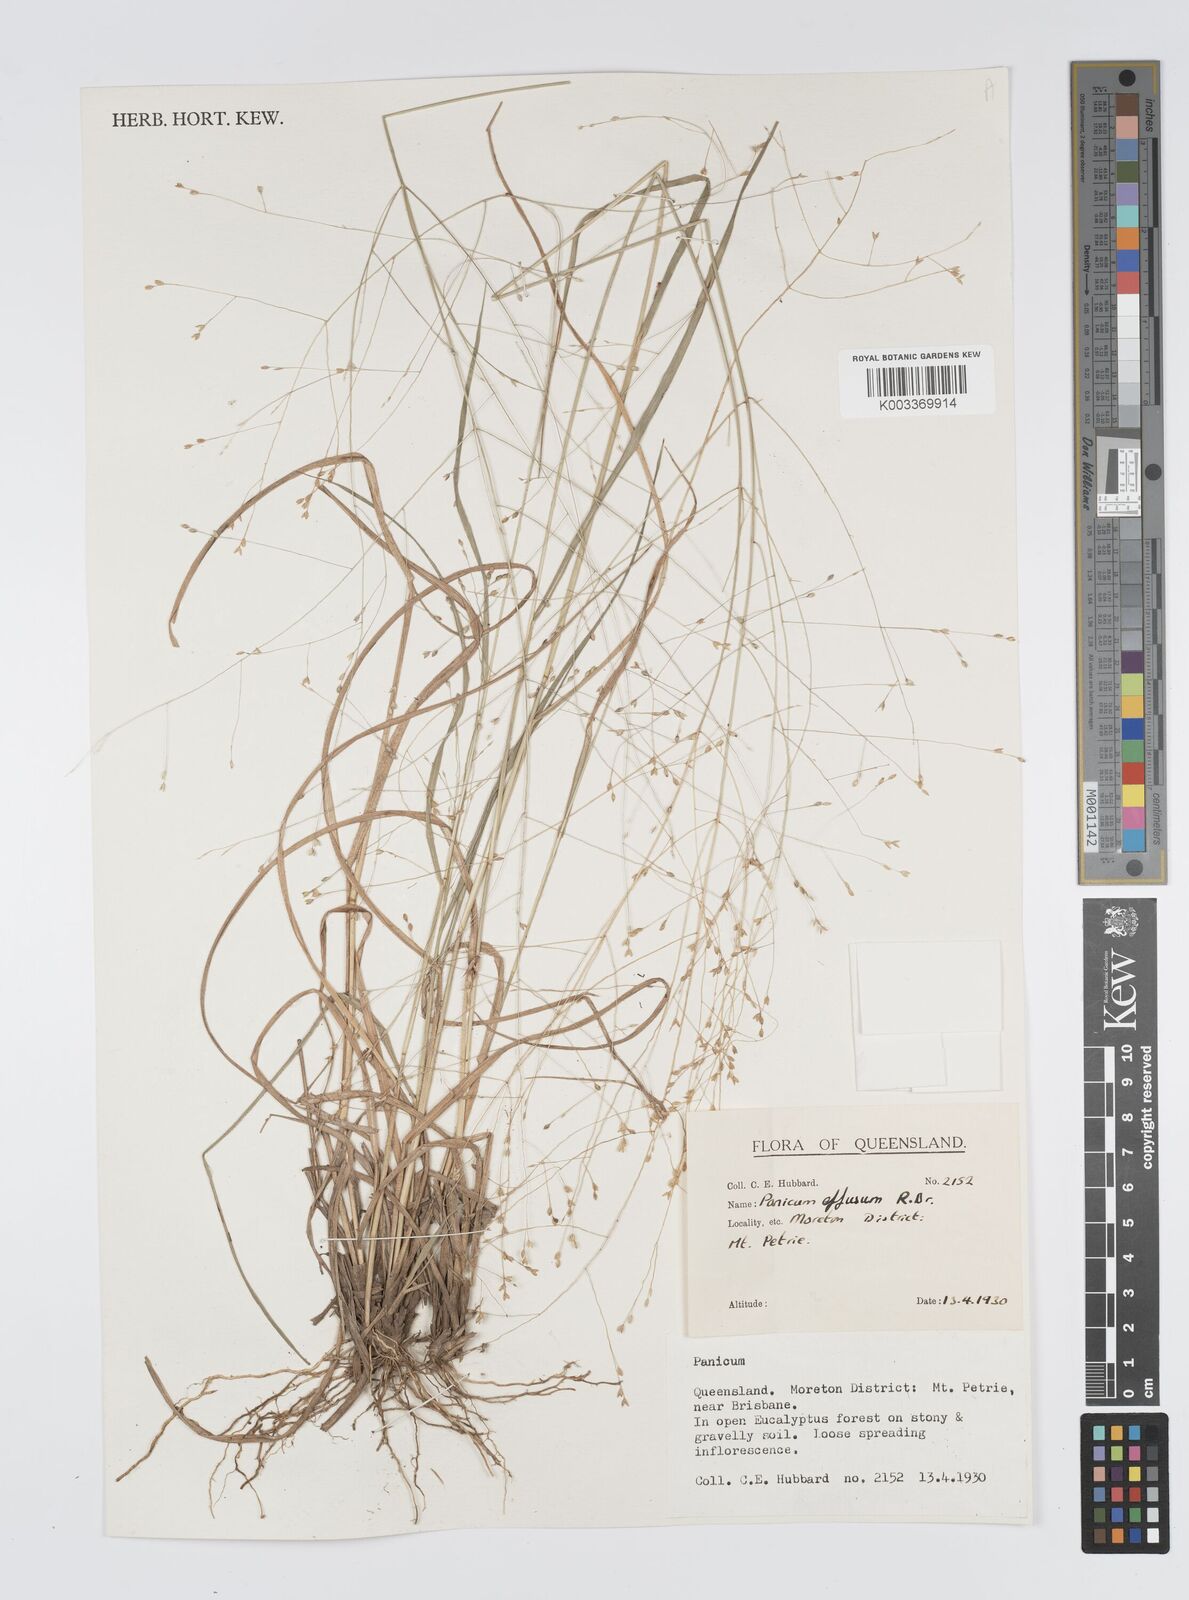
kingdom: Plantae
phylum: Tracheophyta
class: Liliopsida
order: Poales
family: Poaceae
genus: Panicum
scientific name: Panicum effusum
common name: Hairy panic grass
